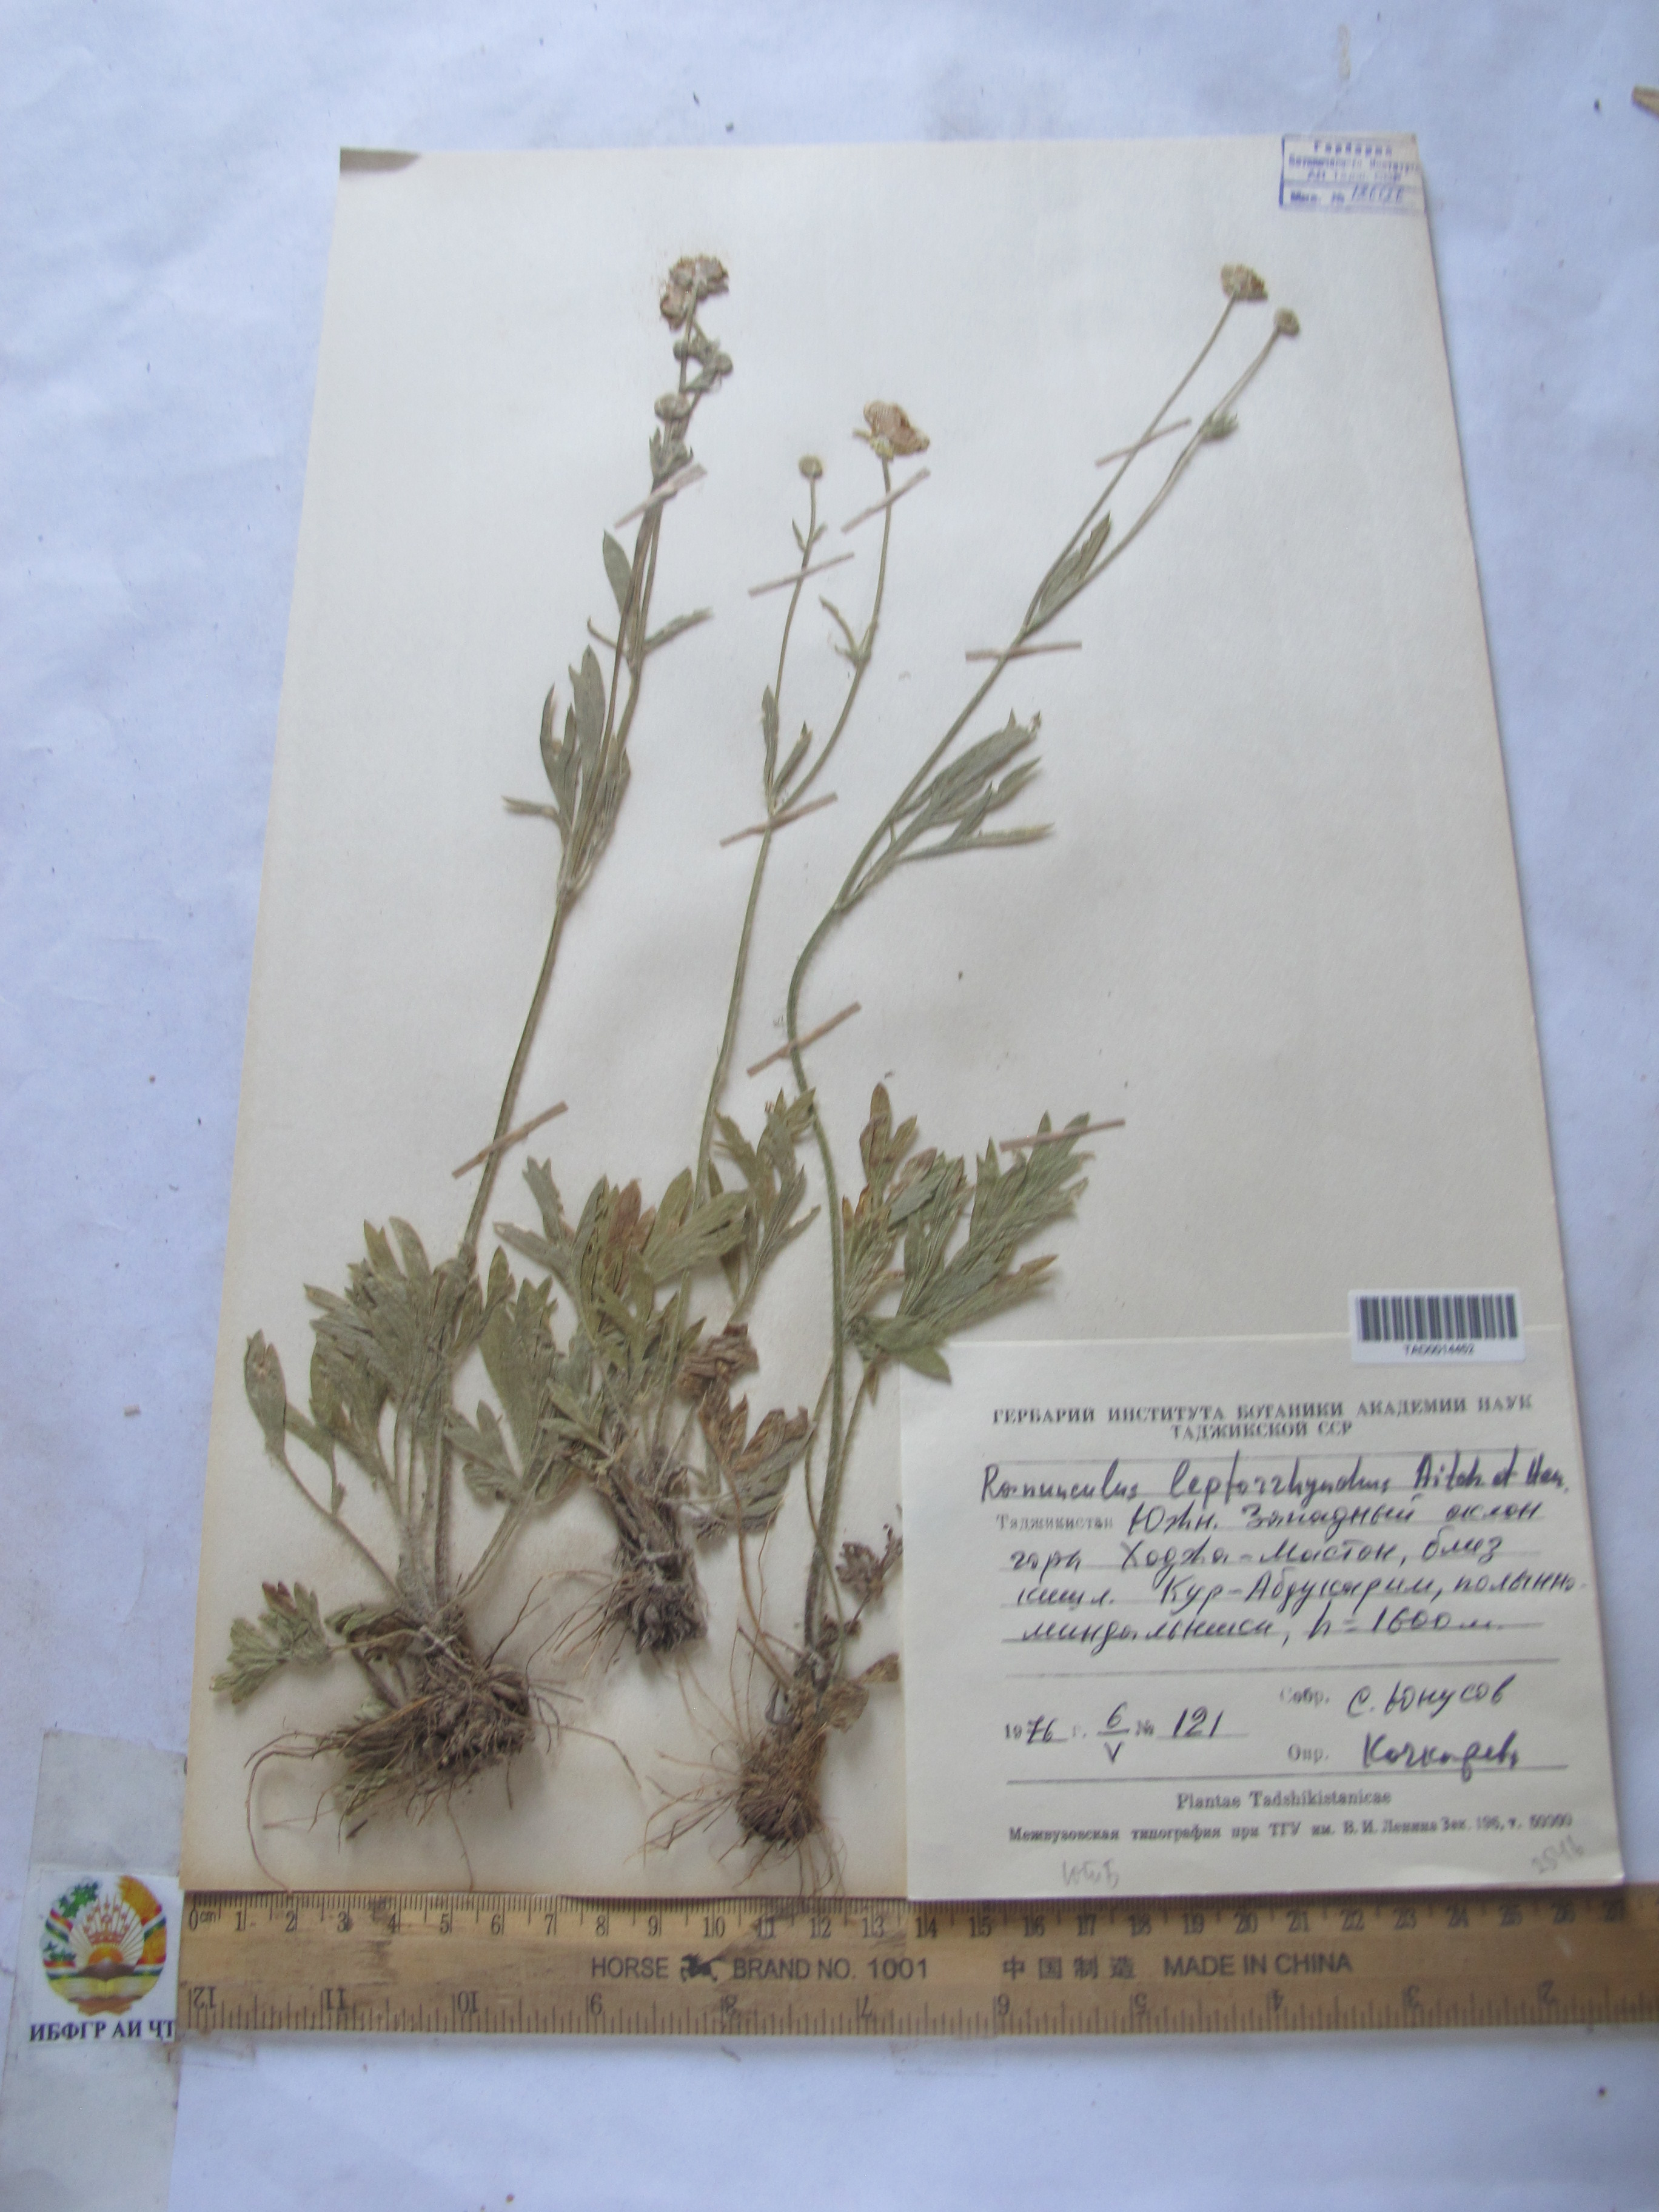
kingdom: Plantae
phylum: Tracheophyta
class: Magnoliopsida
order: Ranunculales
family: Ranunculaceae
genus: Ranunculus
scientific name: Ranunculus leptorrhynchus
